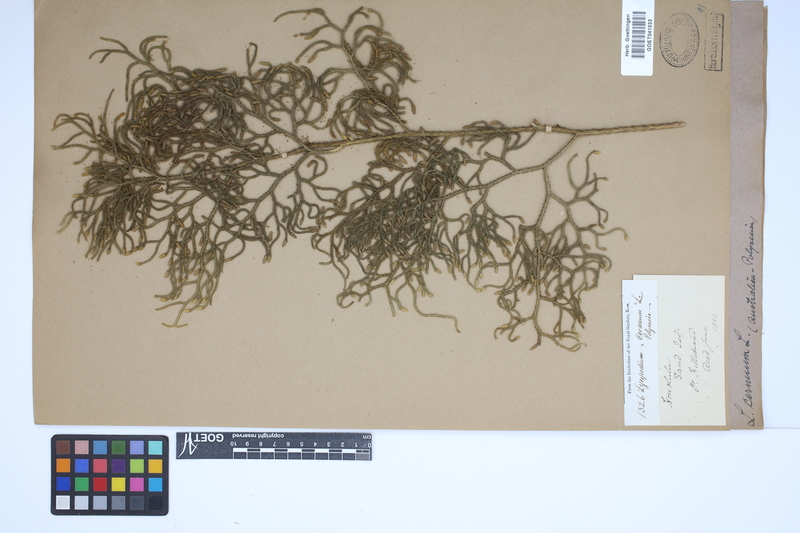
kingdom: Plantae
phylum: Tracheophyta
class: Lycopodiopsida
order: Lycopodiales
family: Lycopodiaceae
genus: Palhinhaea
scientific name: Palhinhaea cernua
